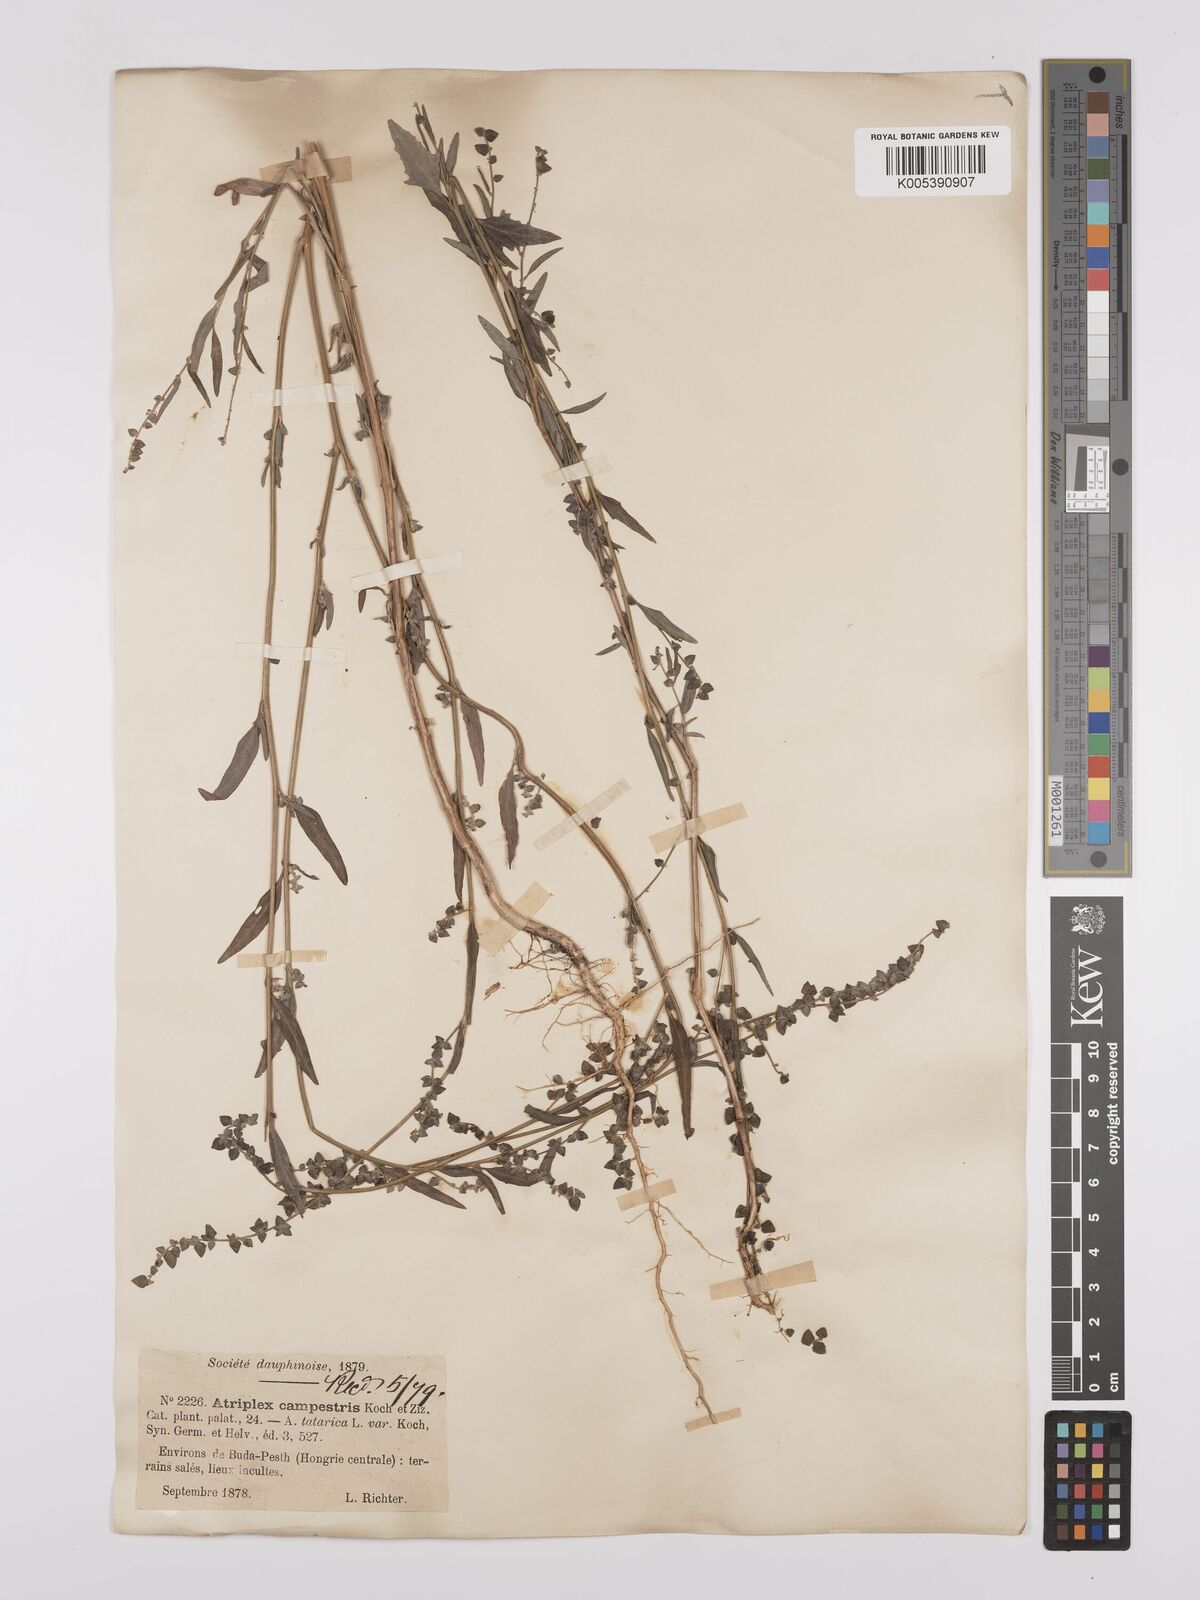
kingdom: Plantae
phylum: Tracheophyta
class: Magnoliopsida
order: Caryophyllales
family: Amaranthaceae
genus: Atriplex
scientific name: Atriplex
